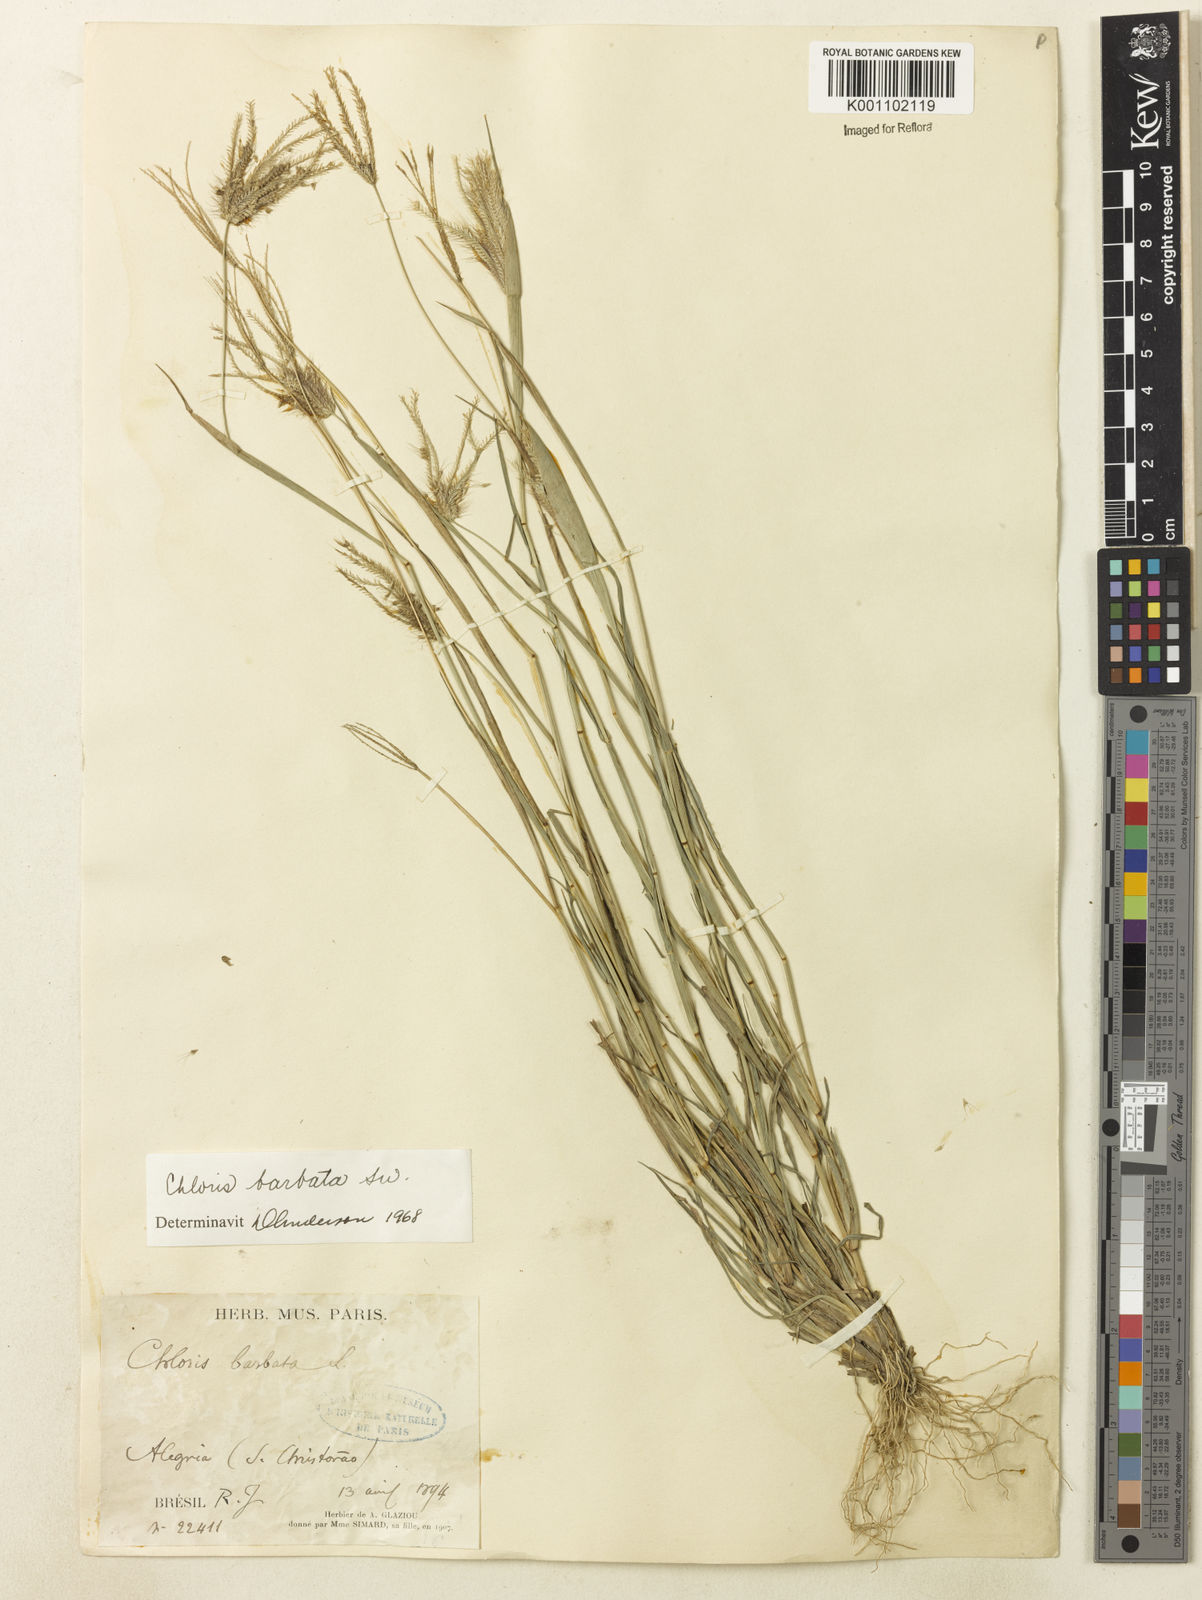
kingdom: Plantae
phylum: Tracheophyta
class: Liliopsida
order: Poales
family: Poaceae
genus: Chloris
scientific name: Chloris barbata
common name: Swollen fingergrass
